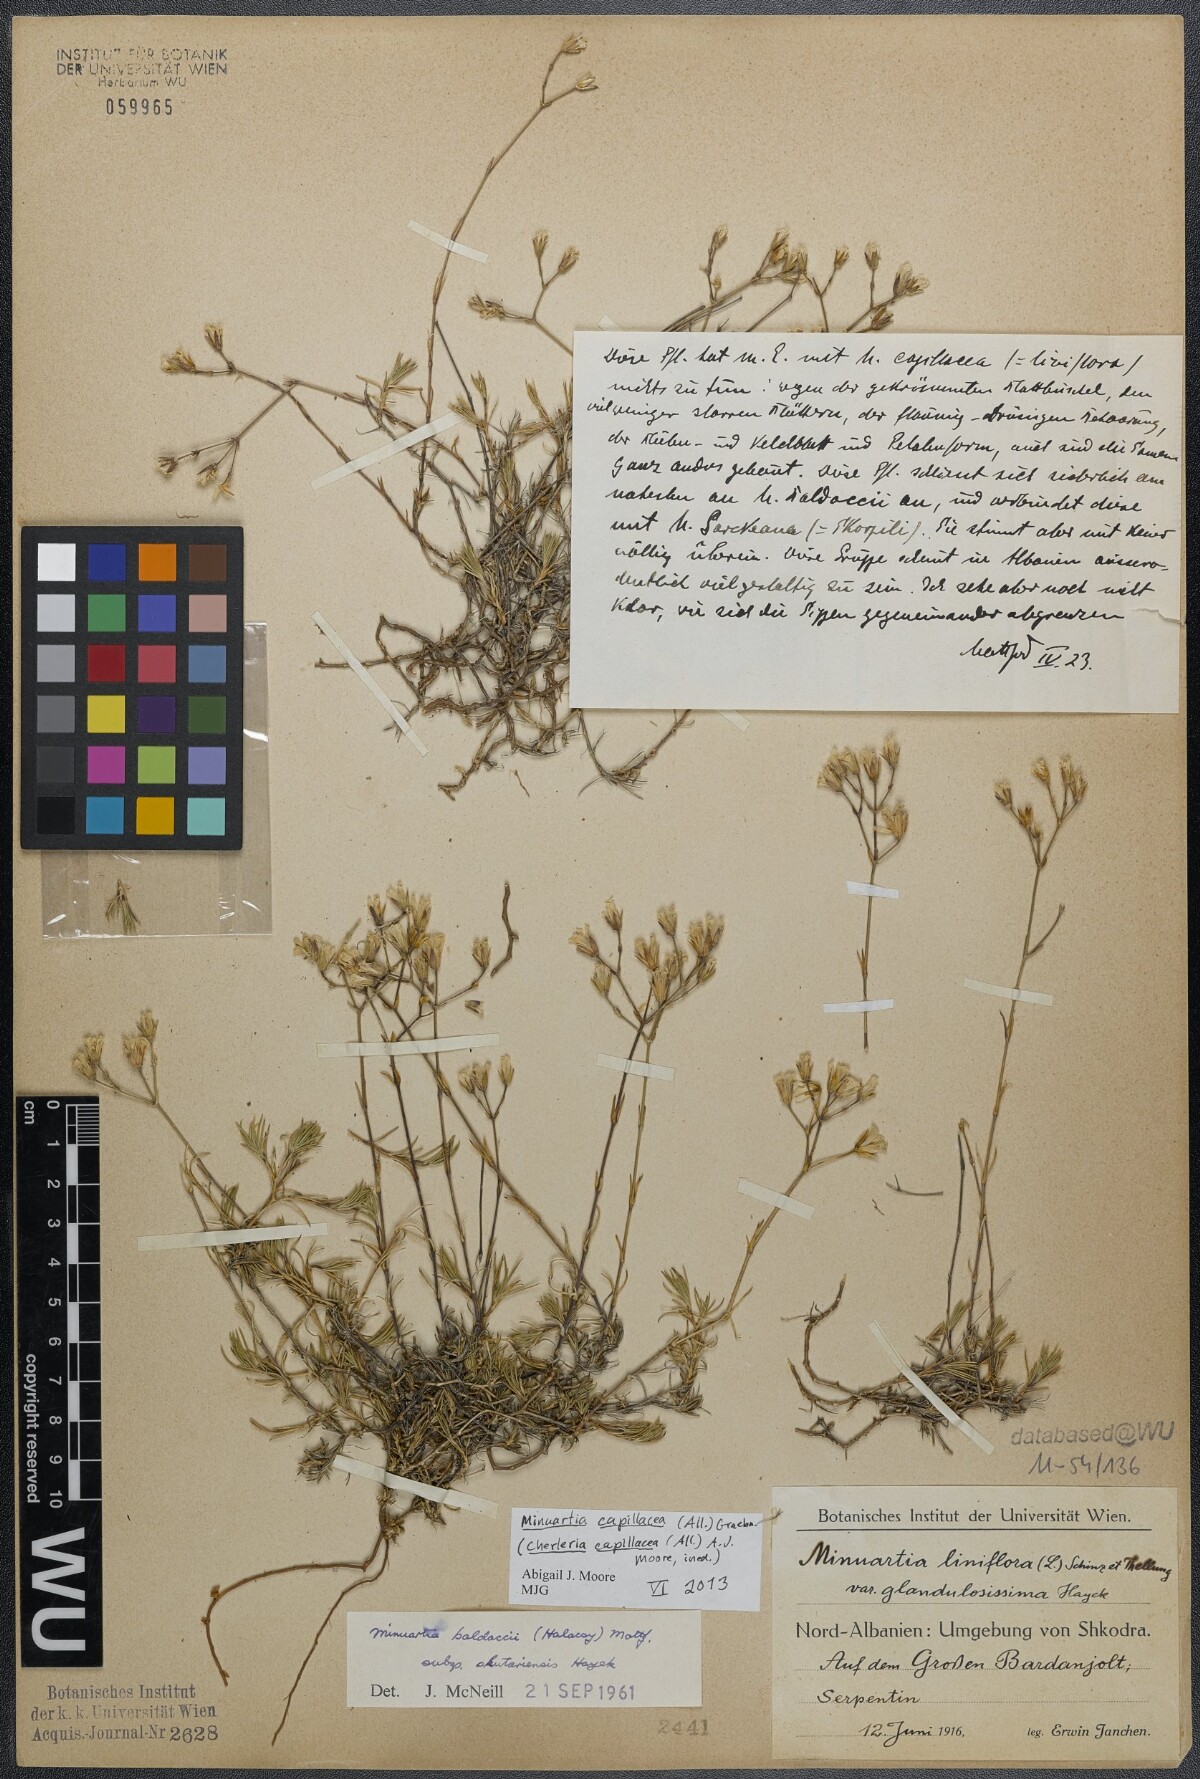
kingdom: Plantae
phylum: Tracheophyta
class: Magnoliopsida
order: Caryophyllales
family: Caryophyllaceae
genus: Cherleria
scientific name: Cherleria capillacea
